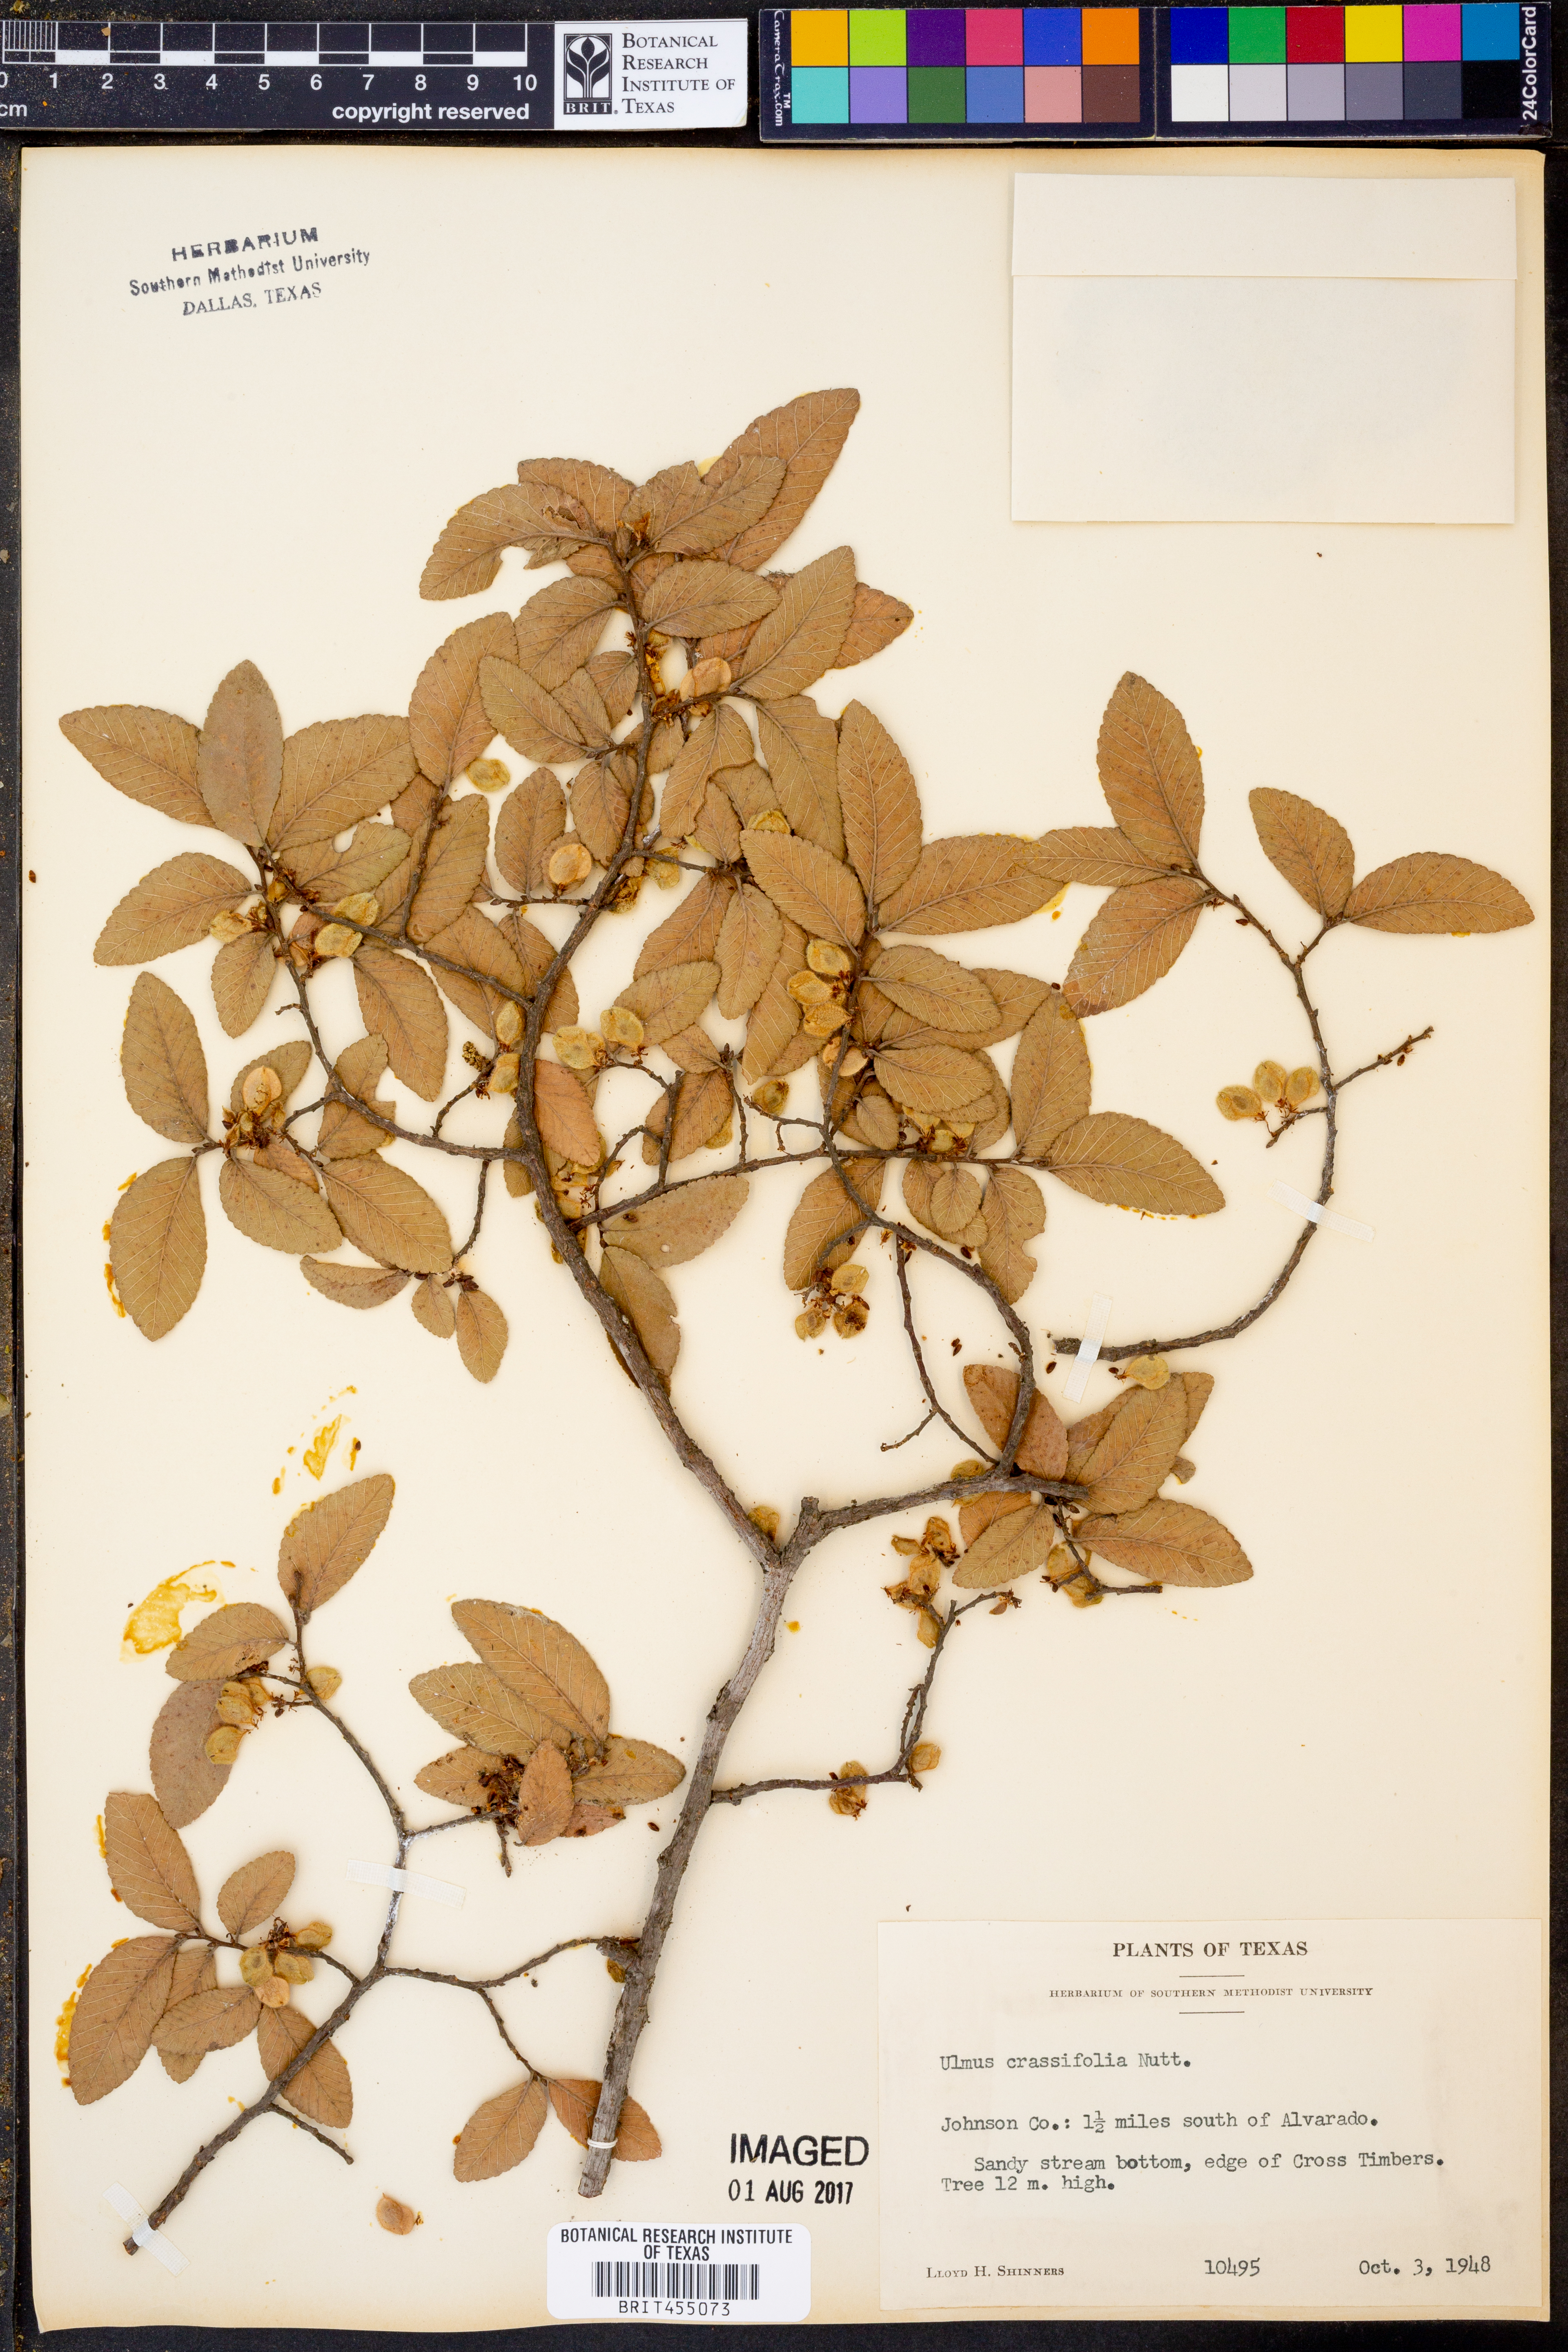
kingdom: Plantae
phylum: Tracheophyta
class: Magnoliopsida
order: Rosales
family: Ulmaceae
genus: Ulmus
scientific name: Ulmus crassifolia
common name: Basket elm
